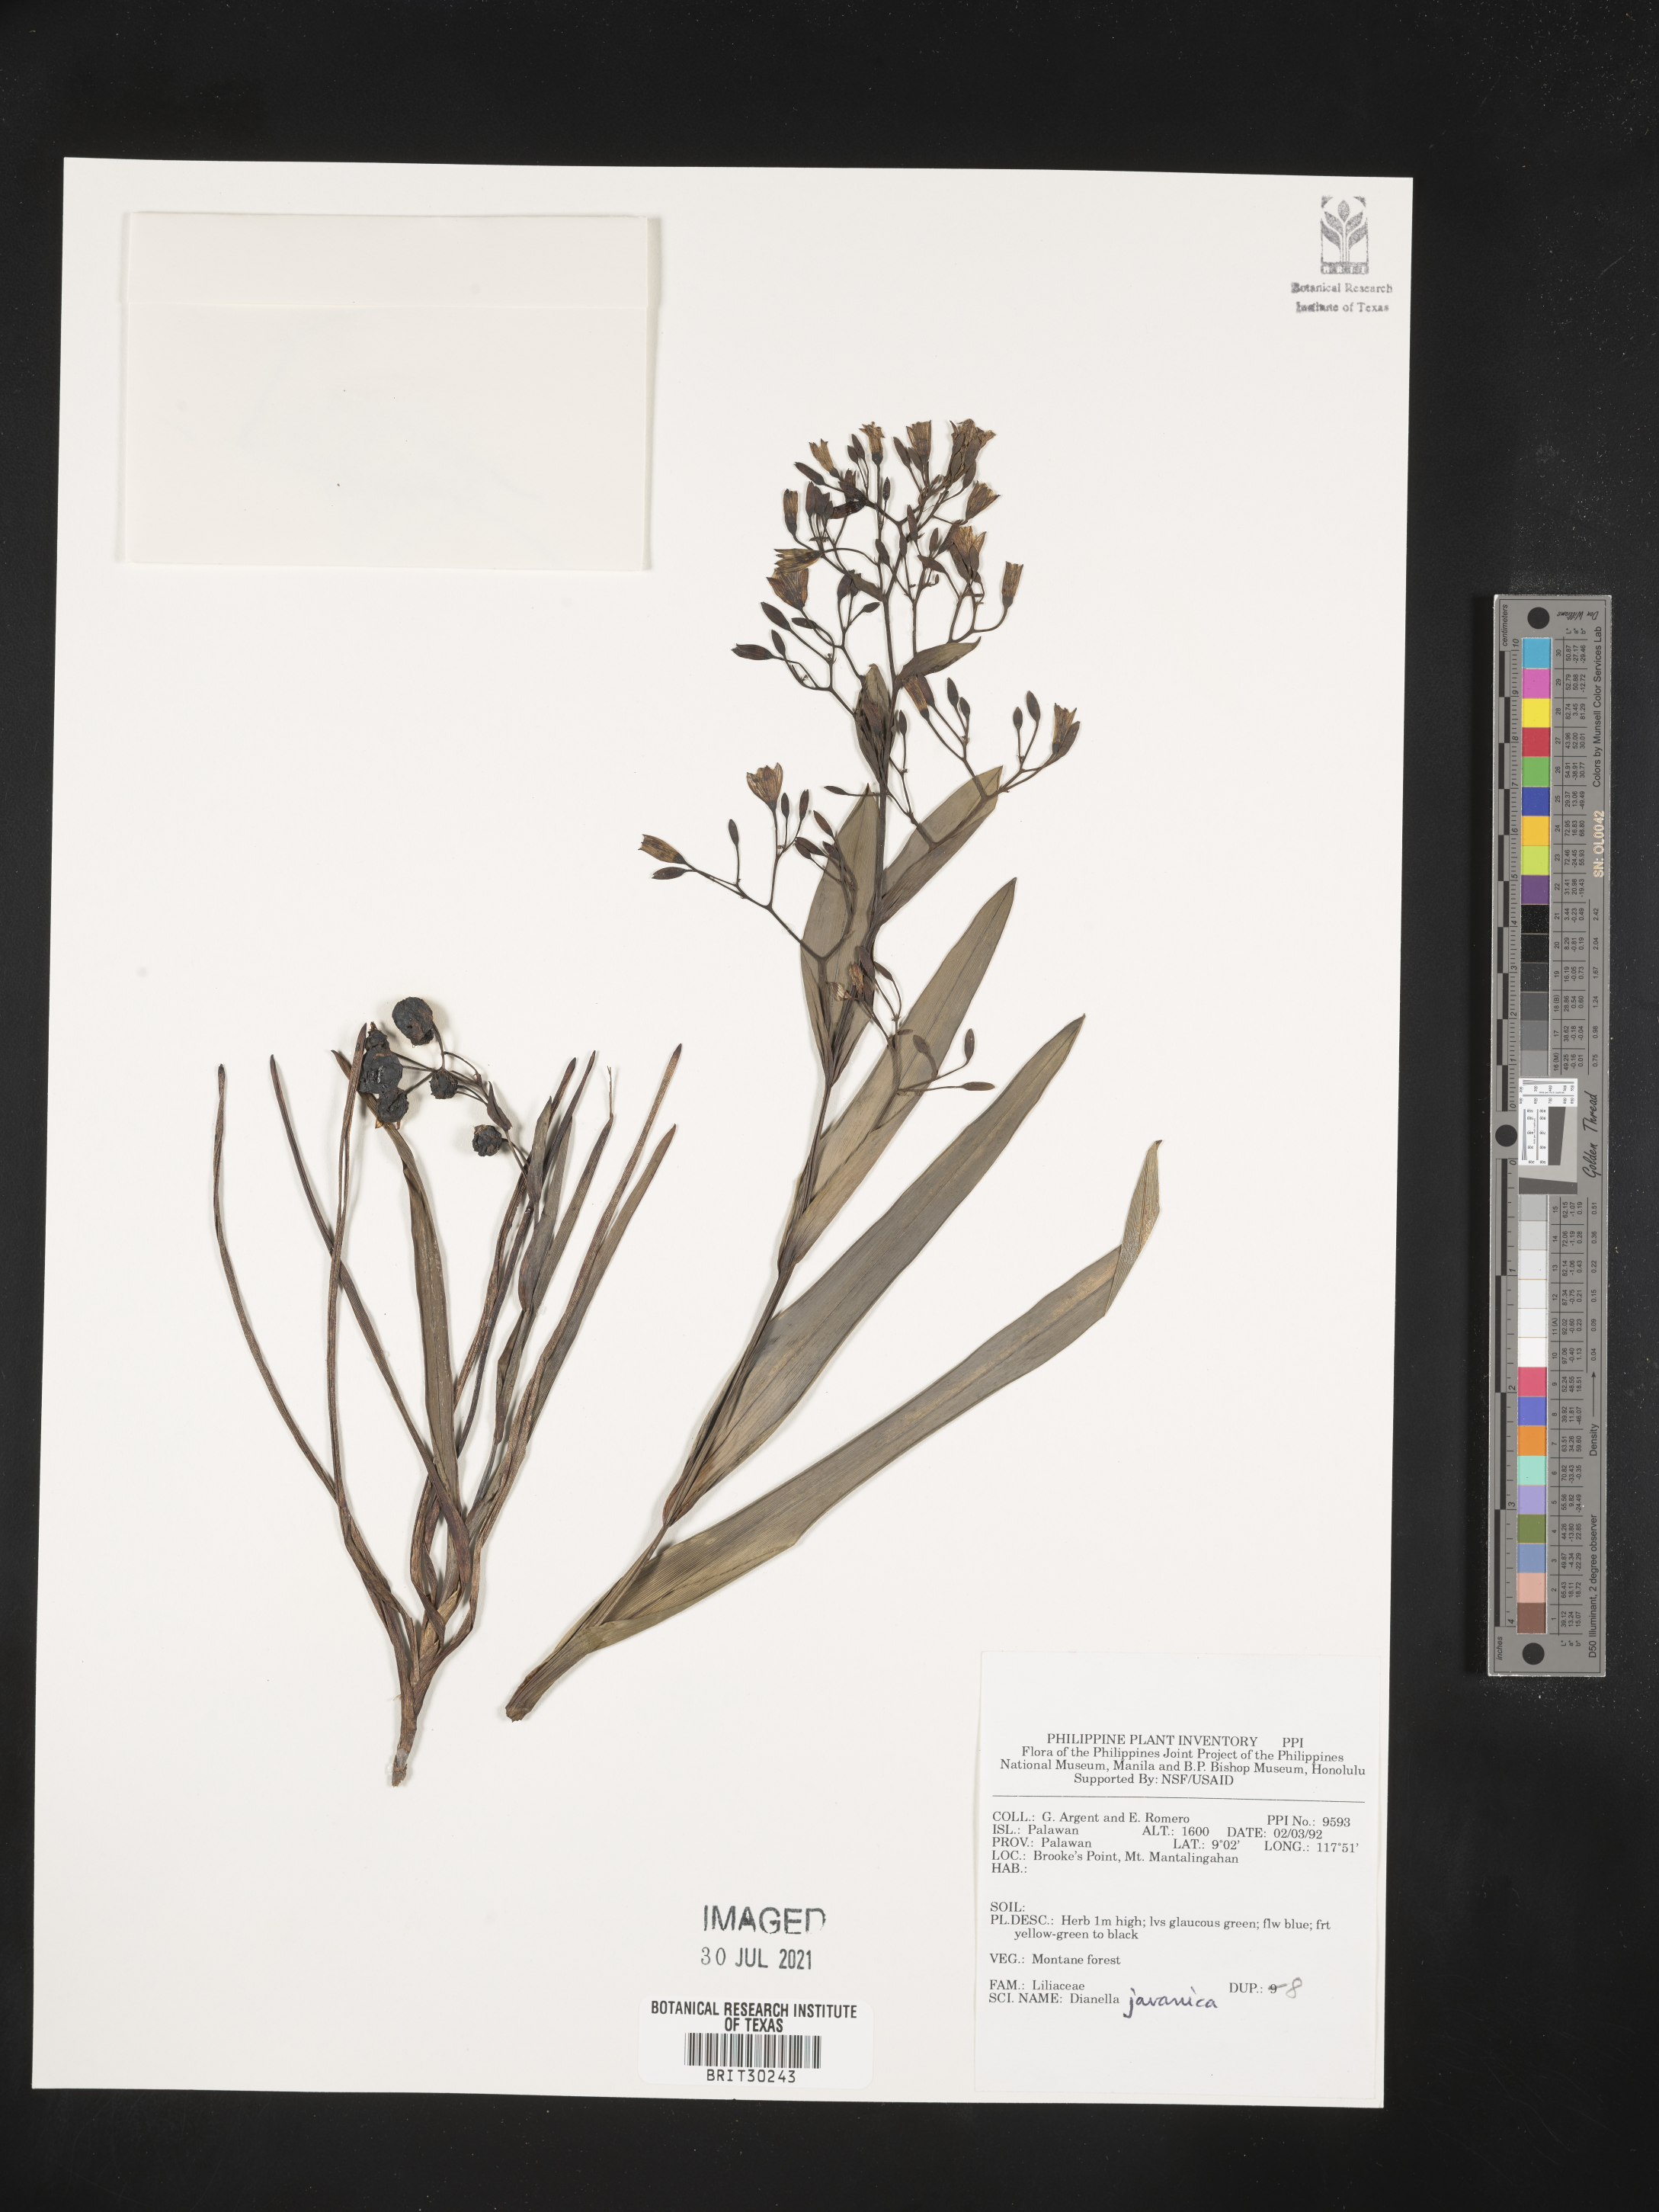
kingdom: Plantae
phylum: Tracheophyta
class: Liliopsida
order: Asparagales
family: Asphodelaceae
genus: Rhuacophila
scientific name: Rhuacophila javanica
